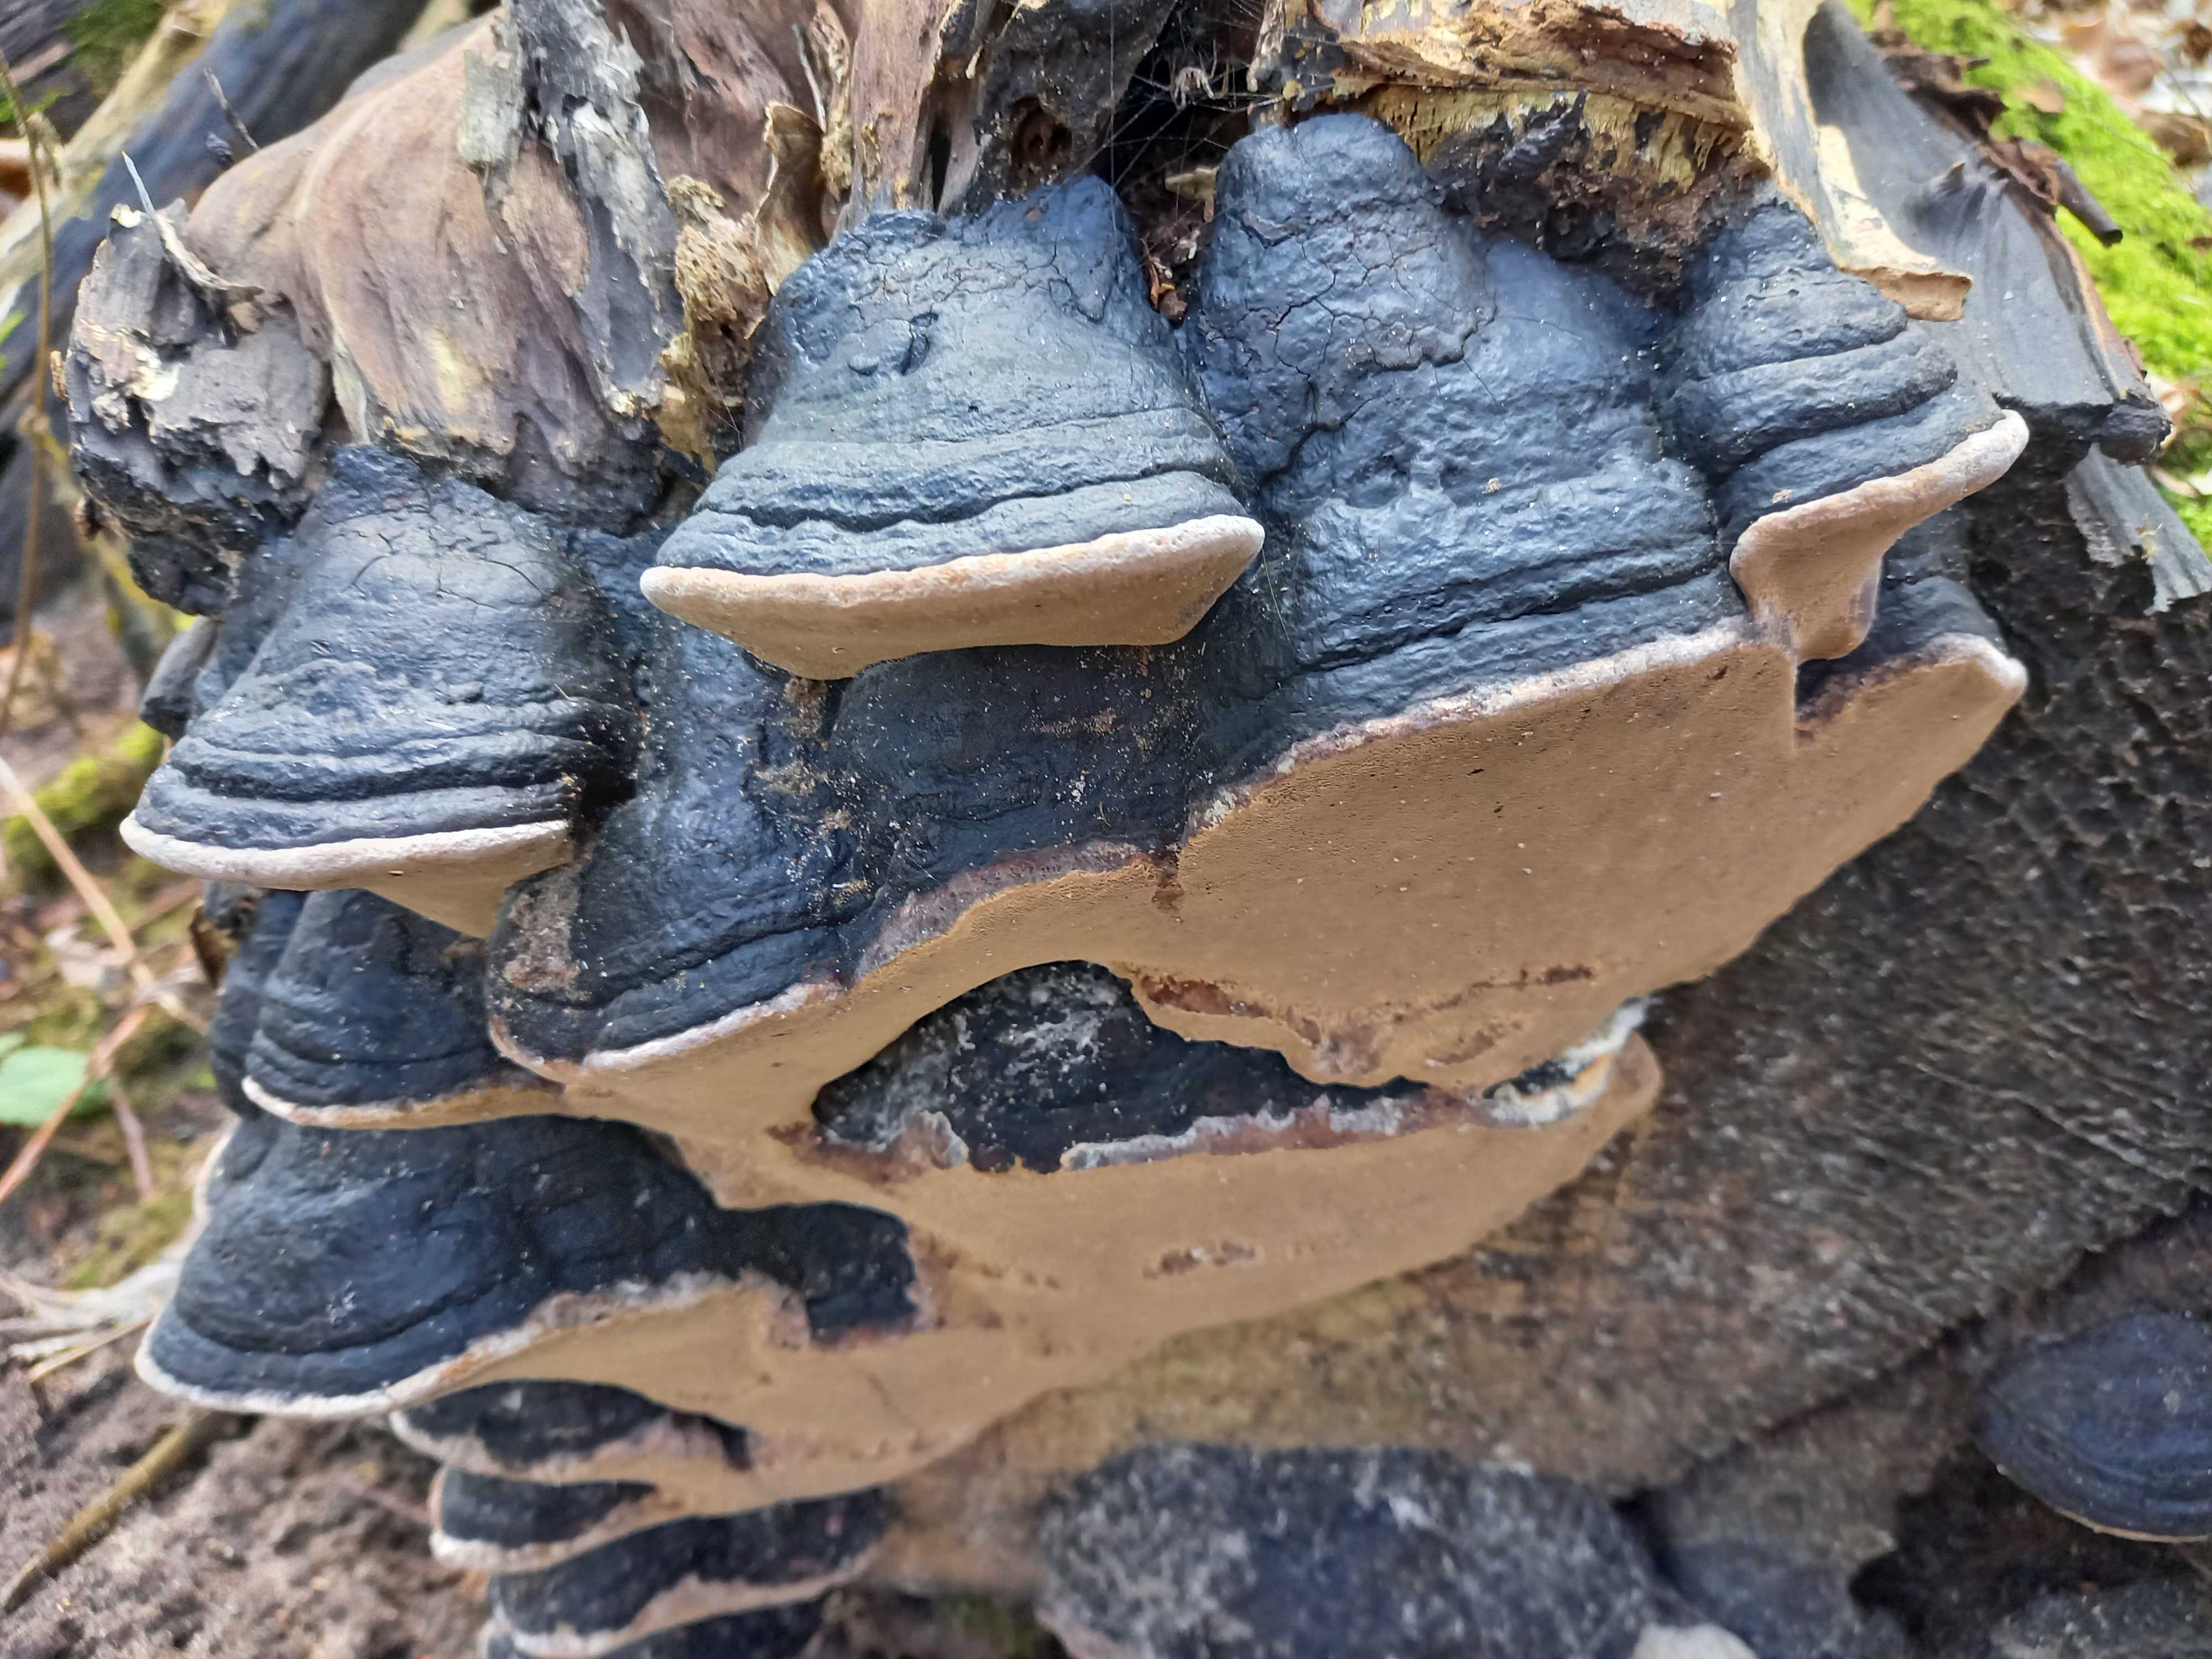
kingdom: Fungi
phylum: Basidiomycota
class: Agaricomycetes
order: Hymenochaetales
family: Hymenochaetaceae
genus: Phellinus
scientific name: Phellinus igniarius
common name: almindelig ildporesvamp
